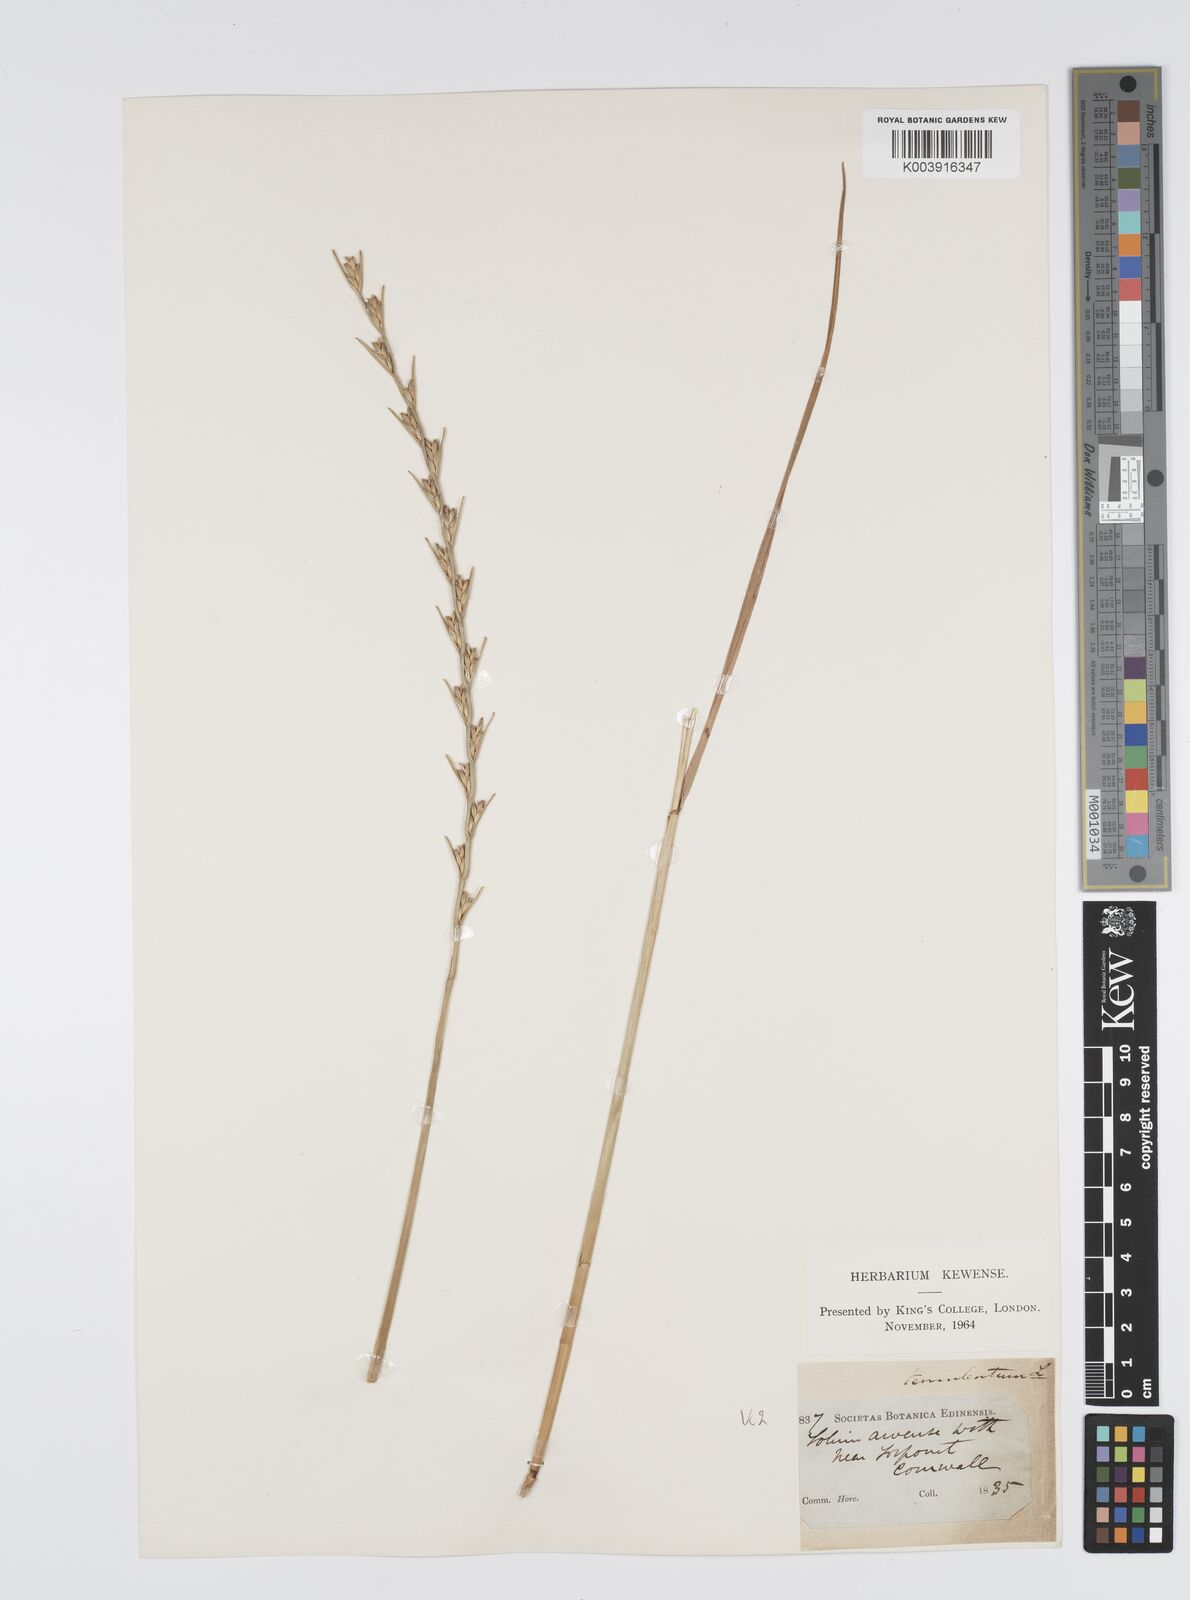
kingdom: Plantae
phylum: Tracheophyta
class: Liliopsida
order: Poales
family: Poaceae
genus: Lolium
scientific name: Lolium temulentum
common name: Darnel
